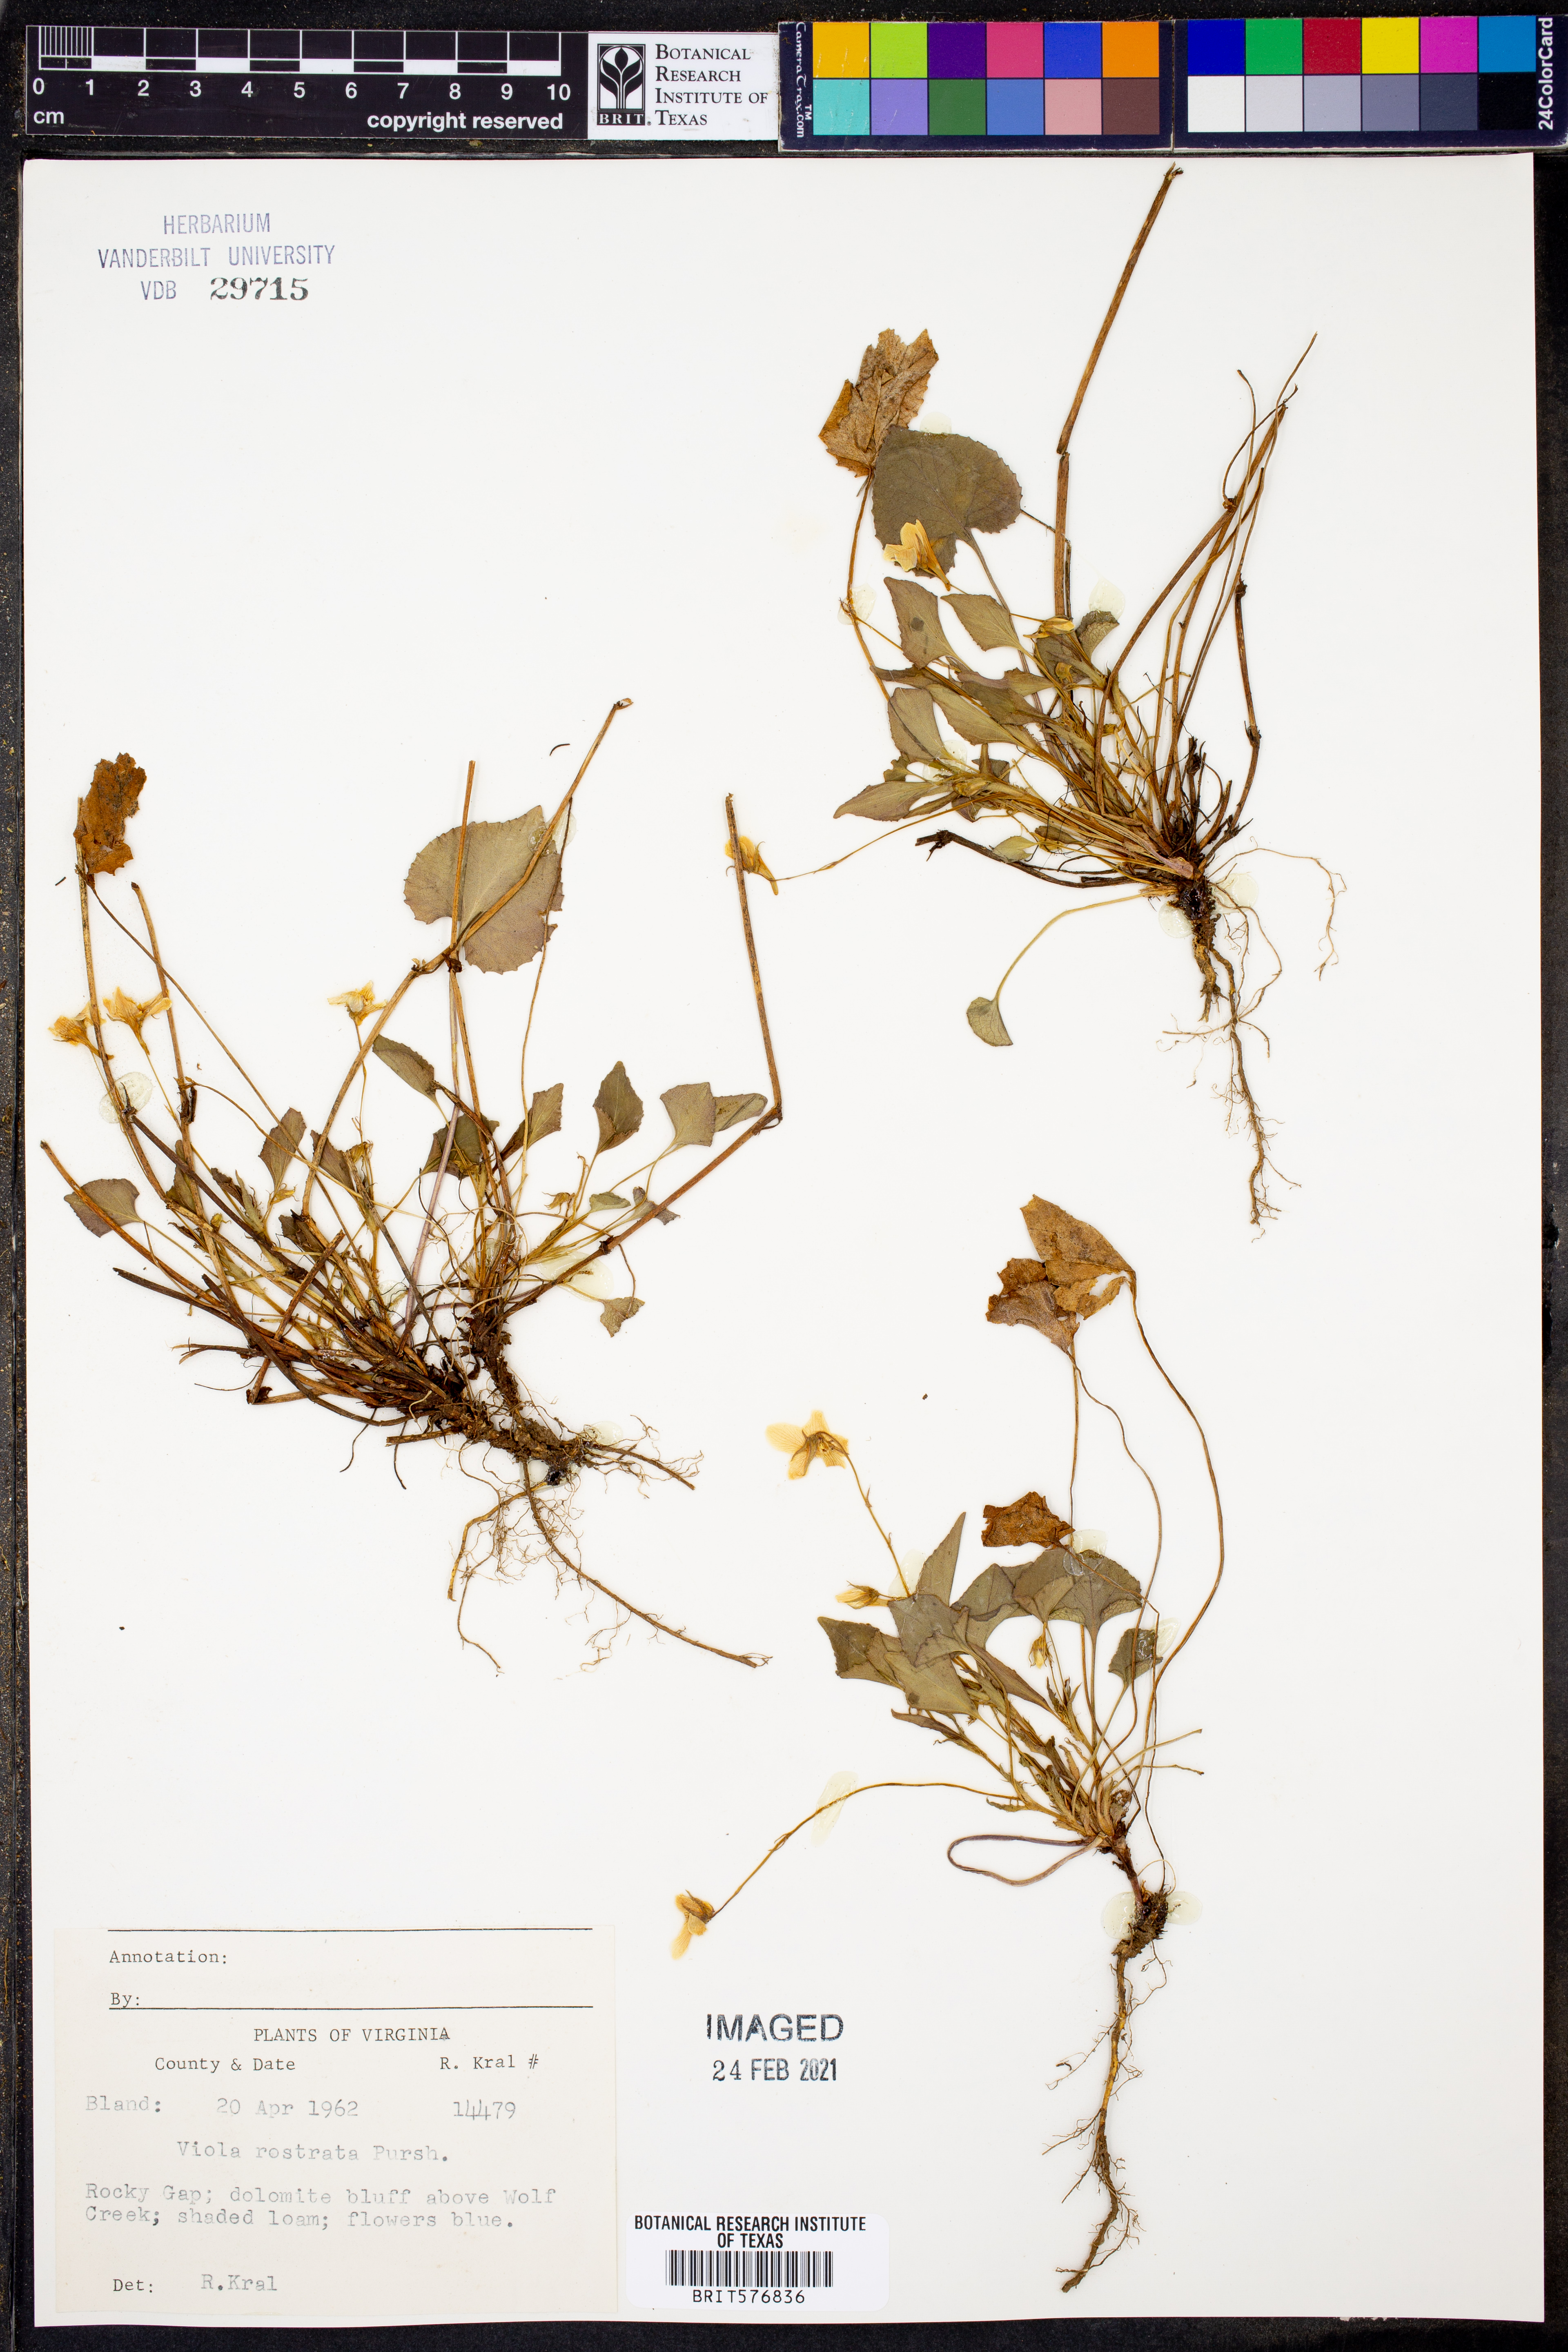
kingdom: Plantae
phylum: Tracheophyta
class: Magnoliopsida
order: Malpighiales
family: Violaceae
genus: Viola
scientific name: Viola rostrata
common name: Long-spur violet
